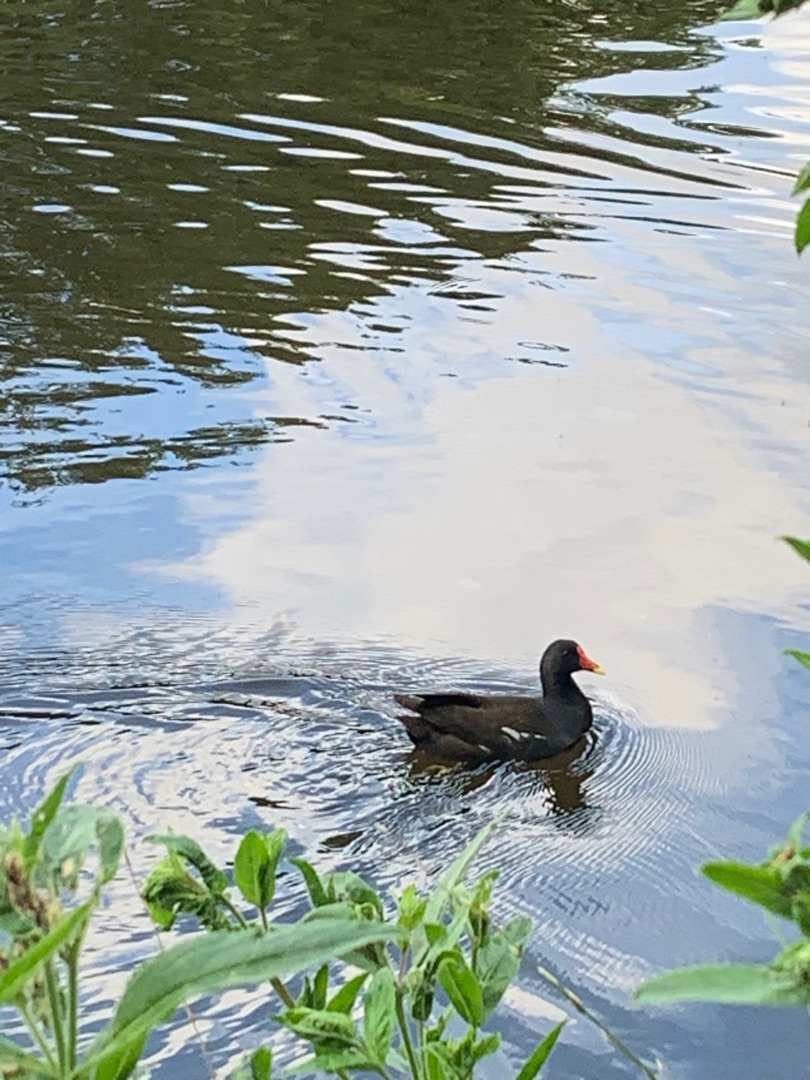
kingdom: Animalia
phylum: Chordata
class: Aves
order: Gruiformes
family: Rallidae
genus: Gallinula
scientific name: Gallinula chloropus
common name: Grønbenet rørhøne
